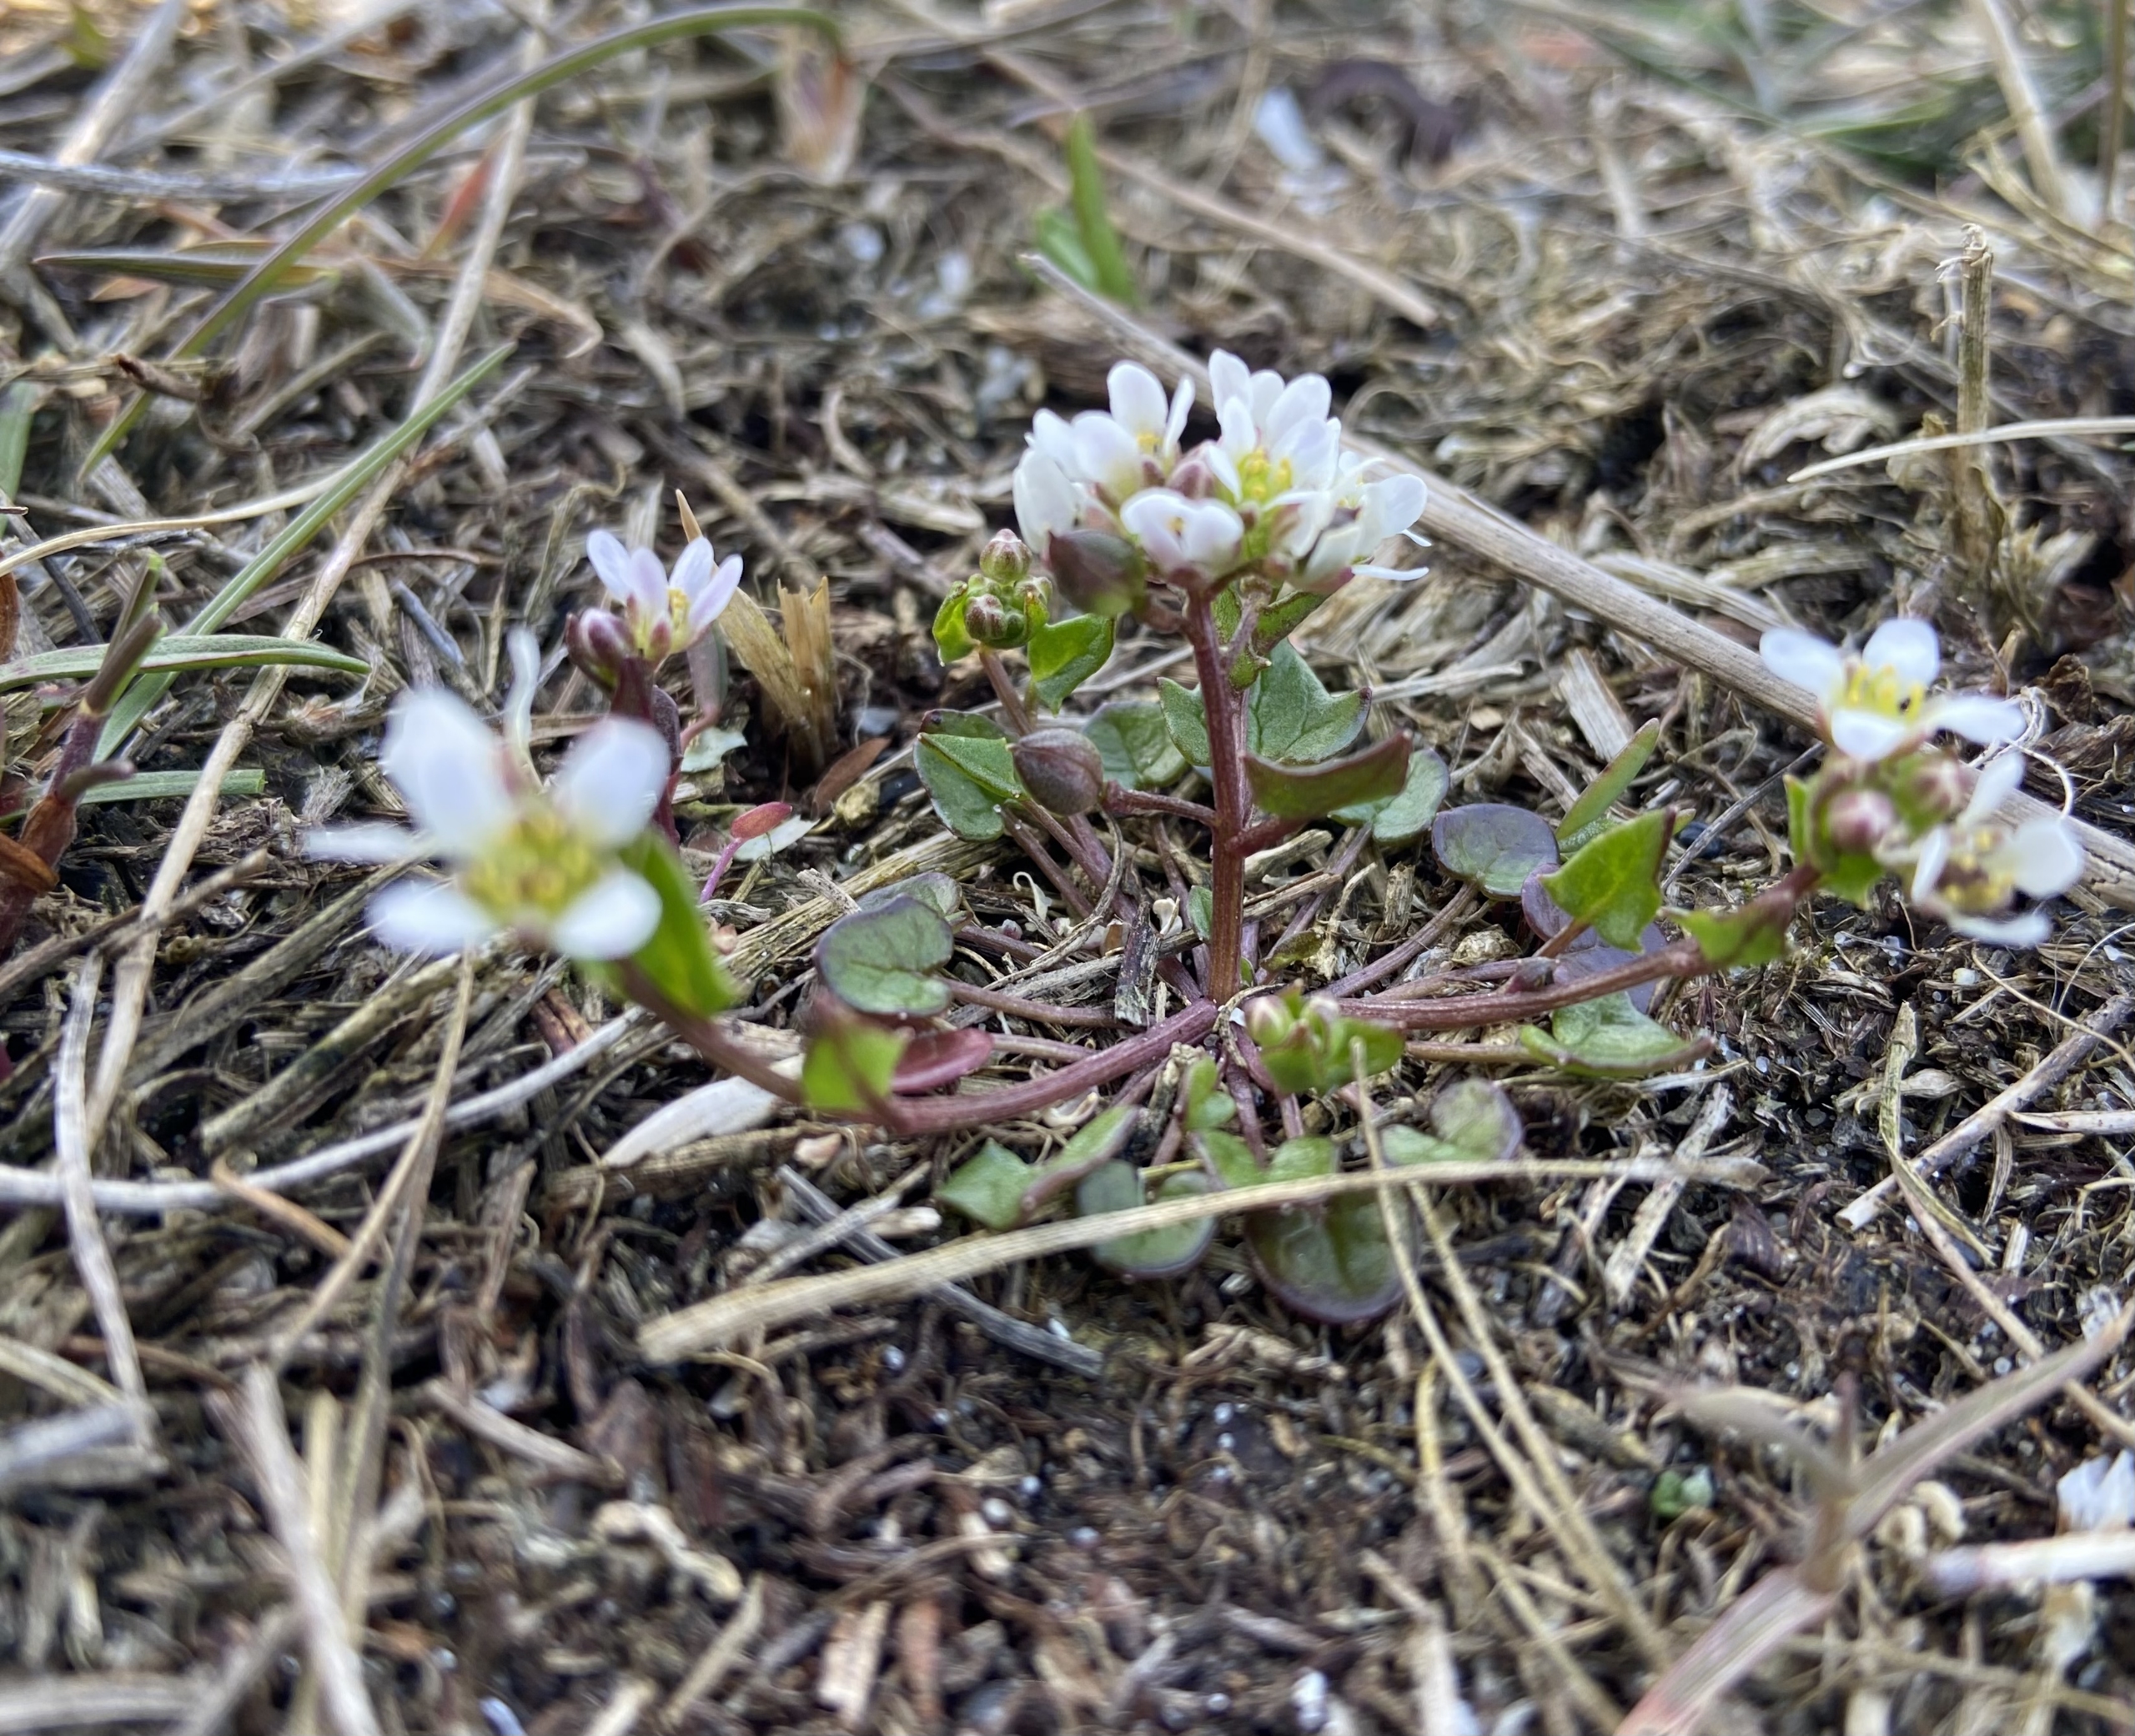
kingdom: Plantae
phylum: Tracheophyta
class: Magnoliopsida
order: Brassicales
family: Brassicaceae
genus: Cochlearia
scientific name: Cochlearia danica
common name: Dansk kokleare
